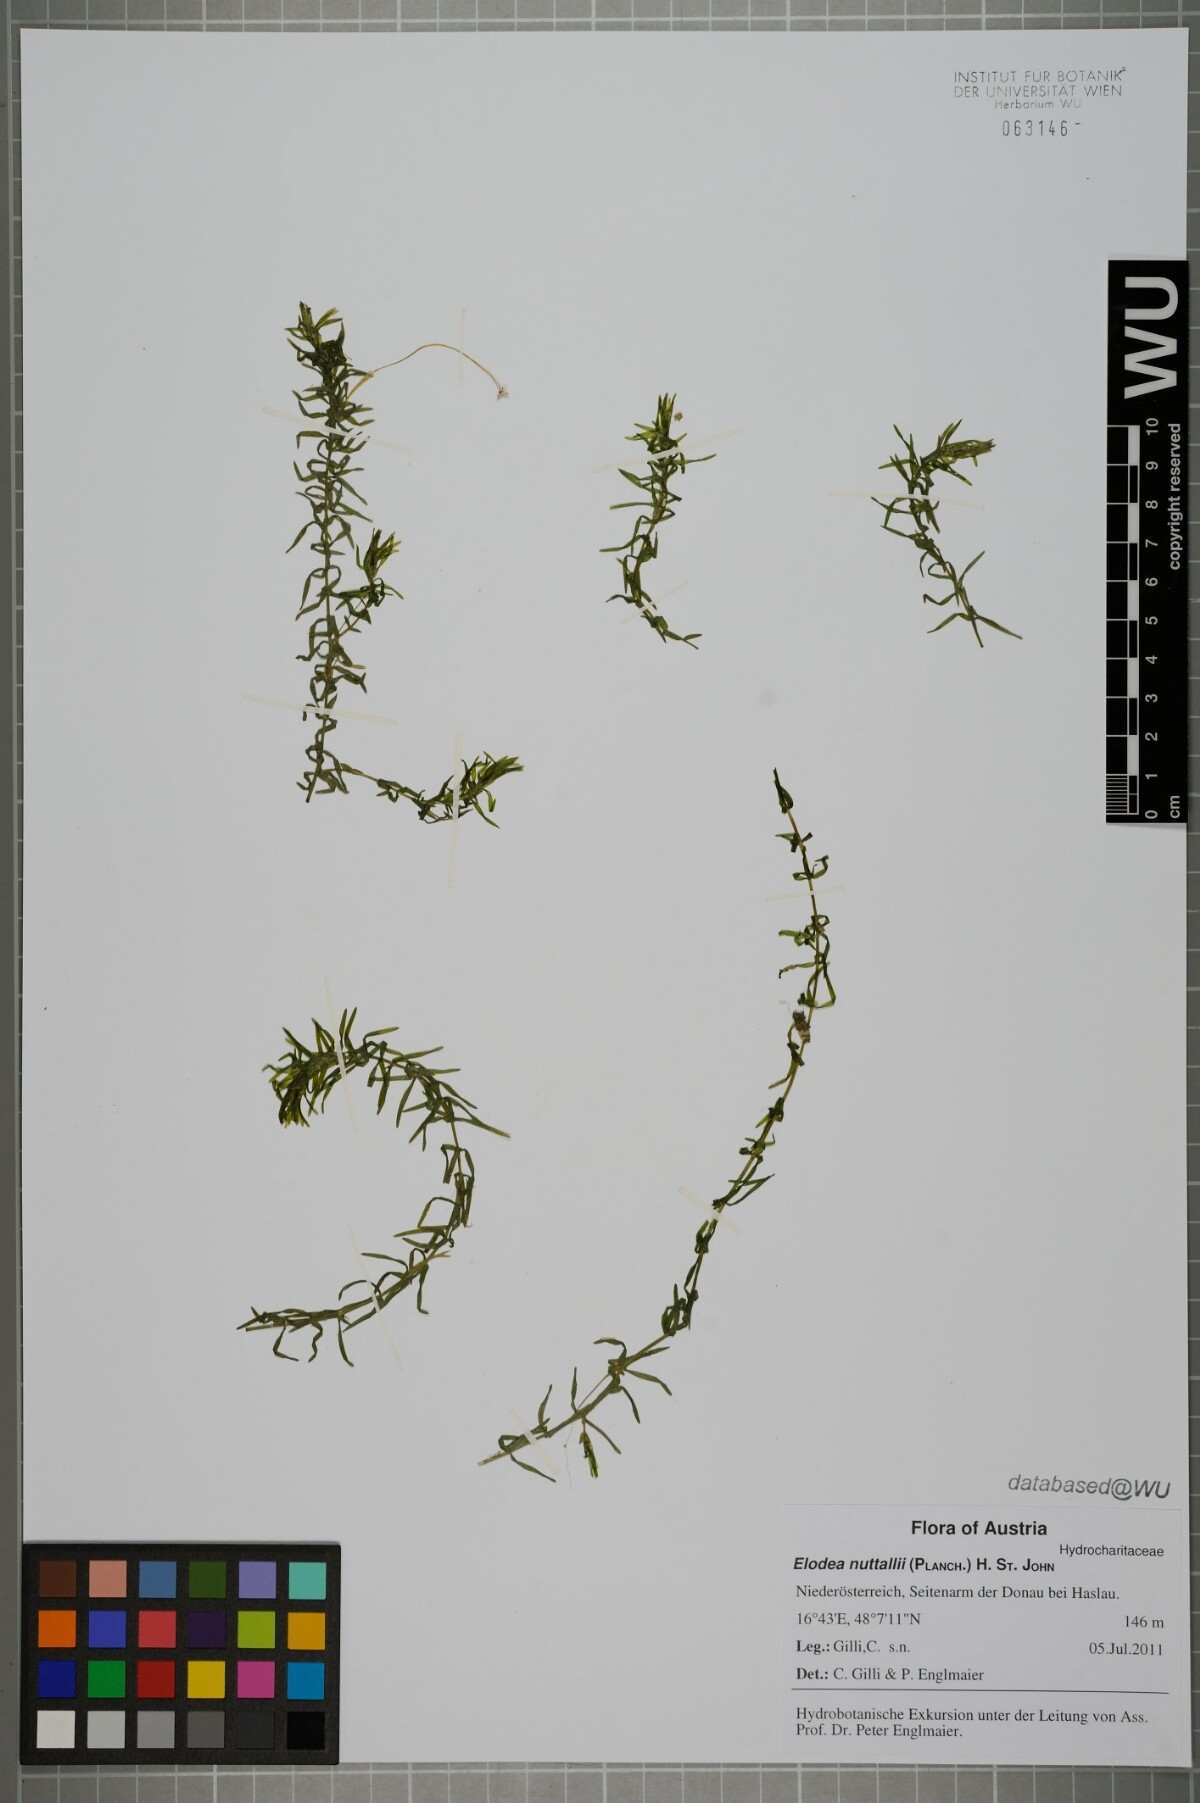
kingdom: Plantae
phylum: Tracheophyta
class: Liliopsida
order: Alismatales
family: Hydrocharitaceae
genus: Elodea
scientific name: Elodea nuttallii
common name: Nuttall's waterweed
